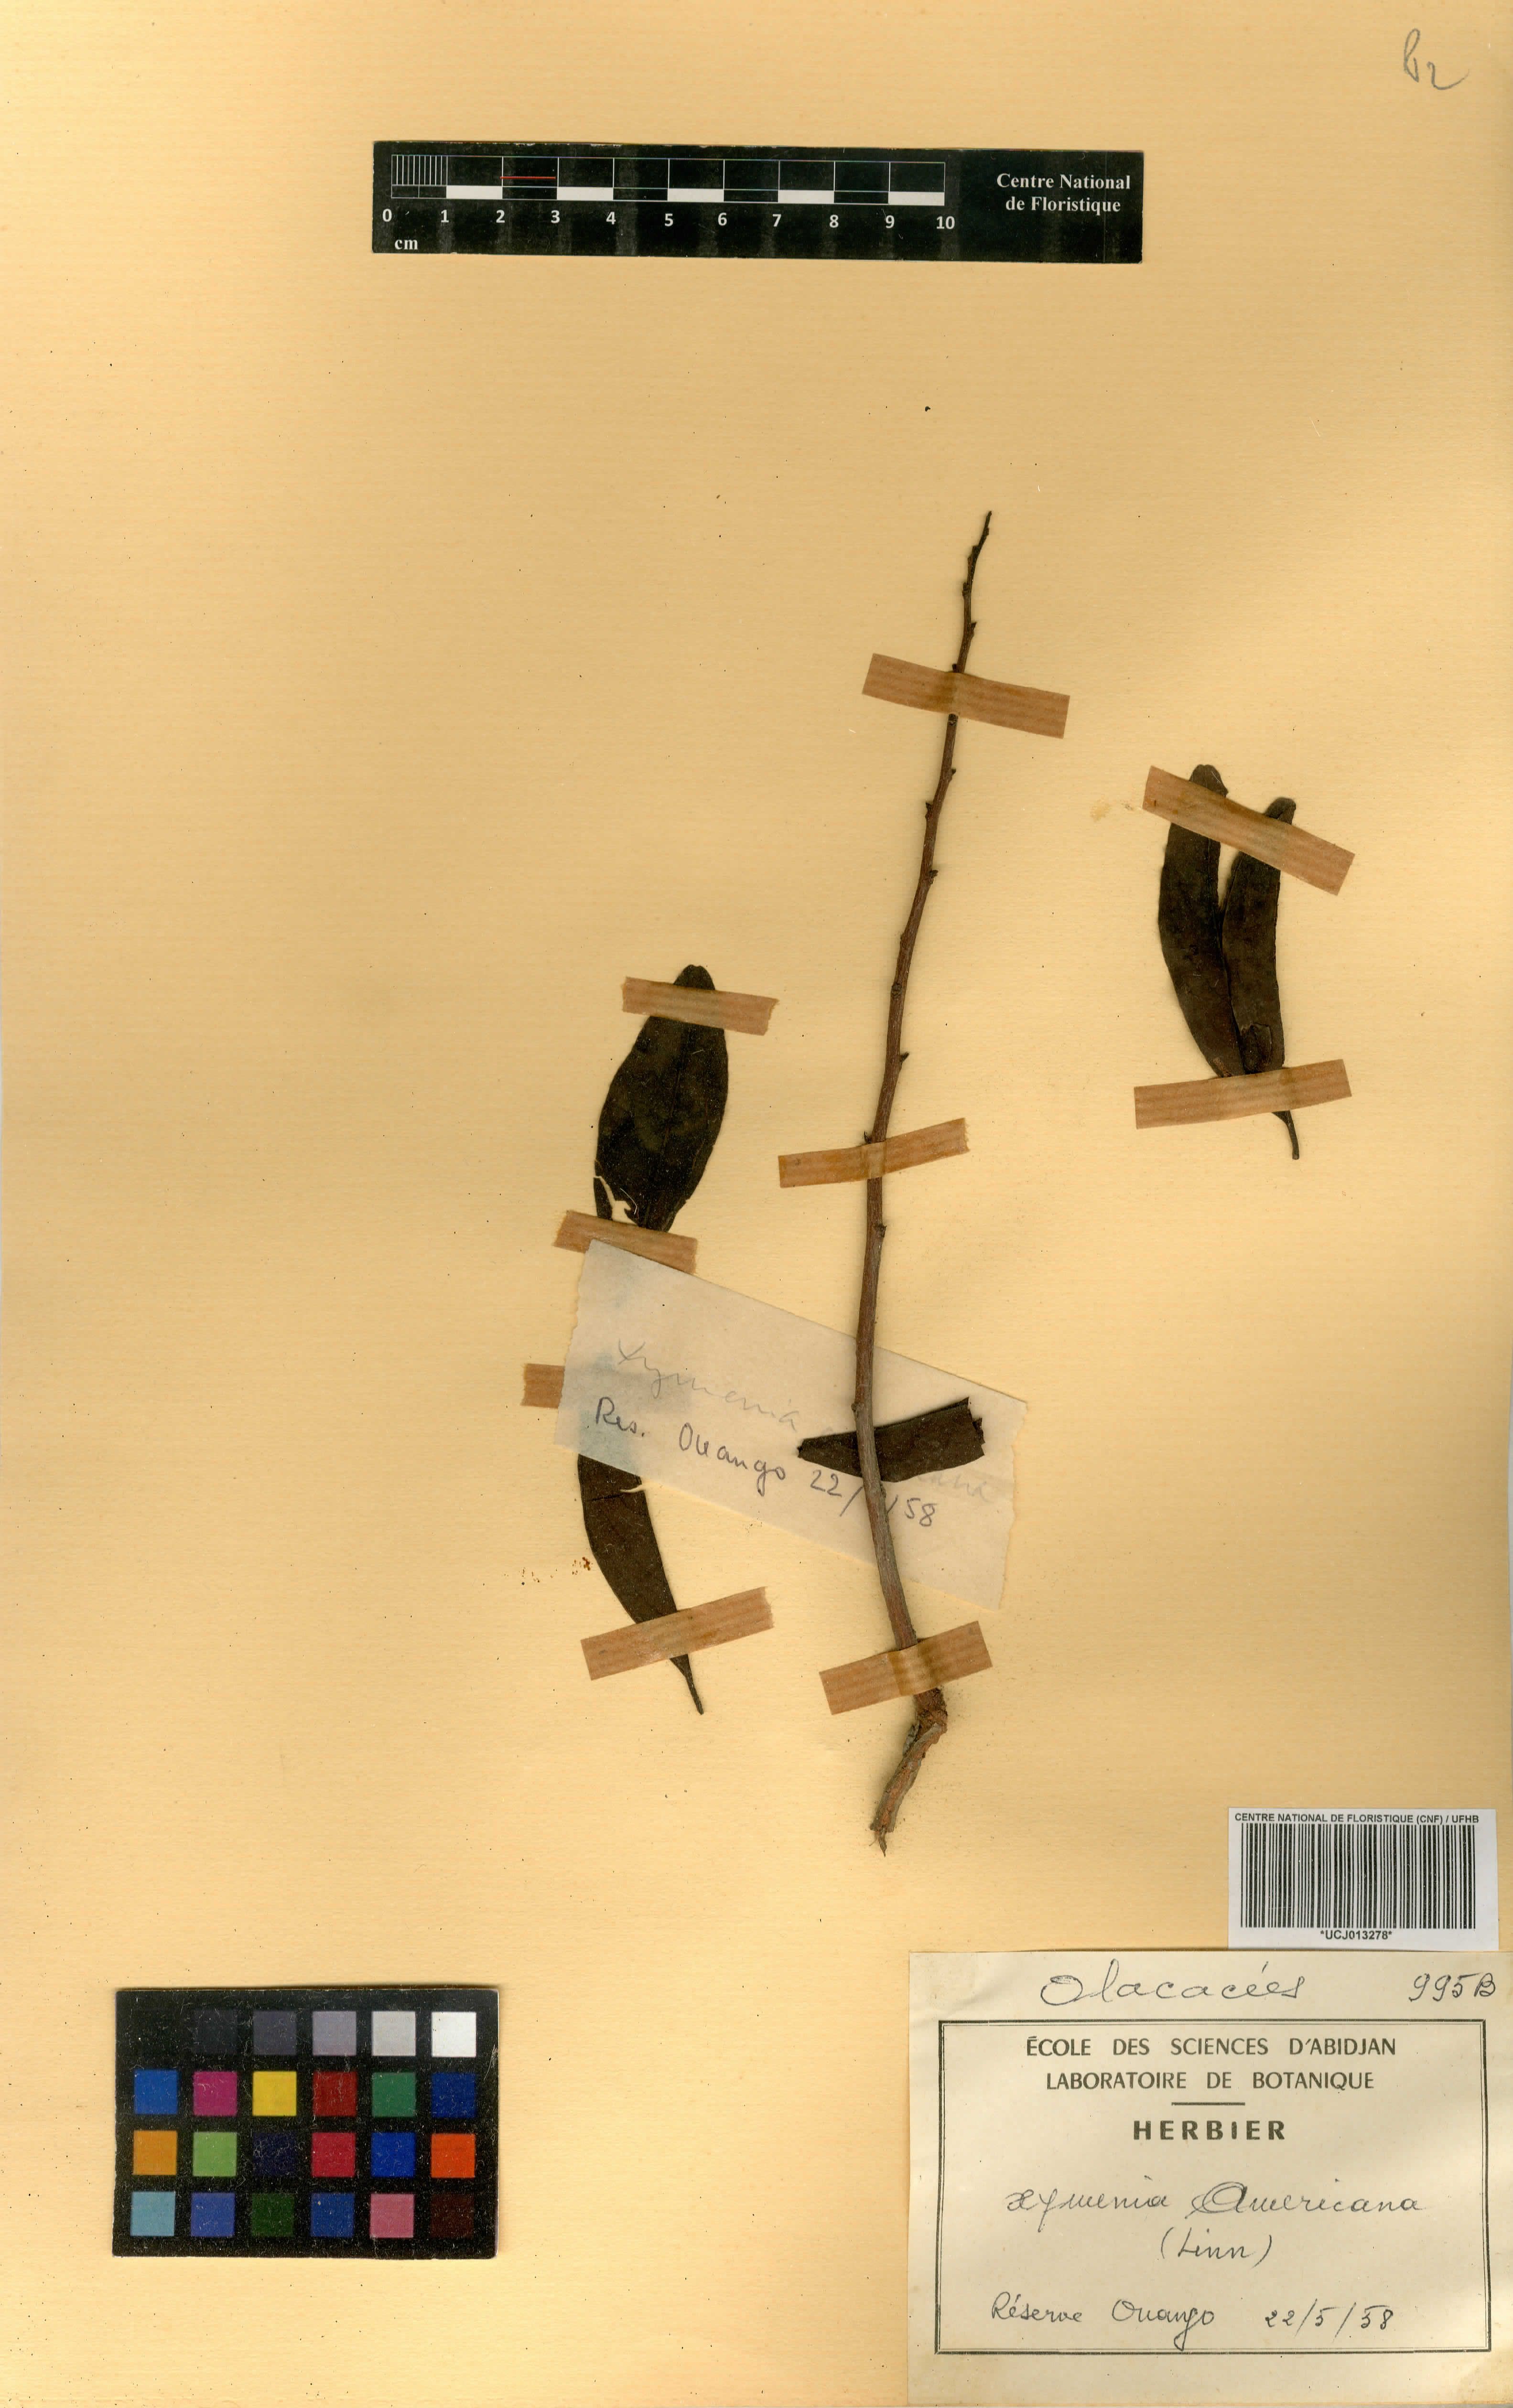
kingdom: Plantae
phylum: Tracheophyta
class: Magnoliopsida
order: Santalales
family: Ximeniaceae
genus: Ximenia
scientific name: Ximenia americana
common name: Tallowwood
